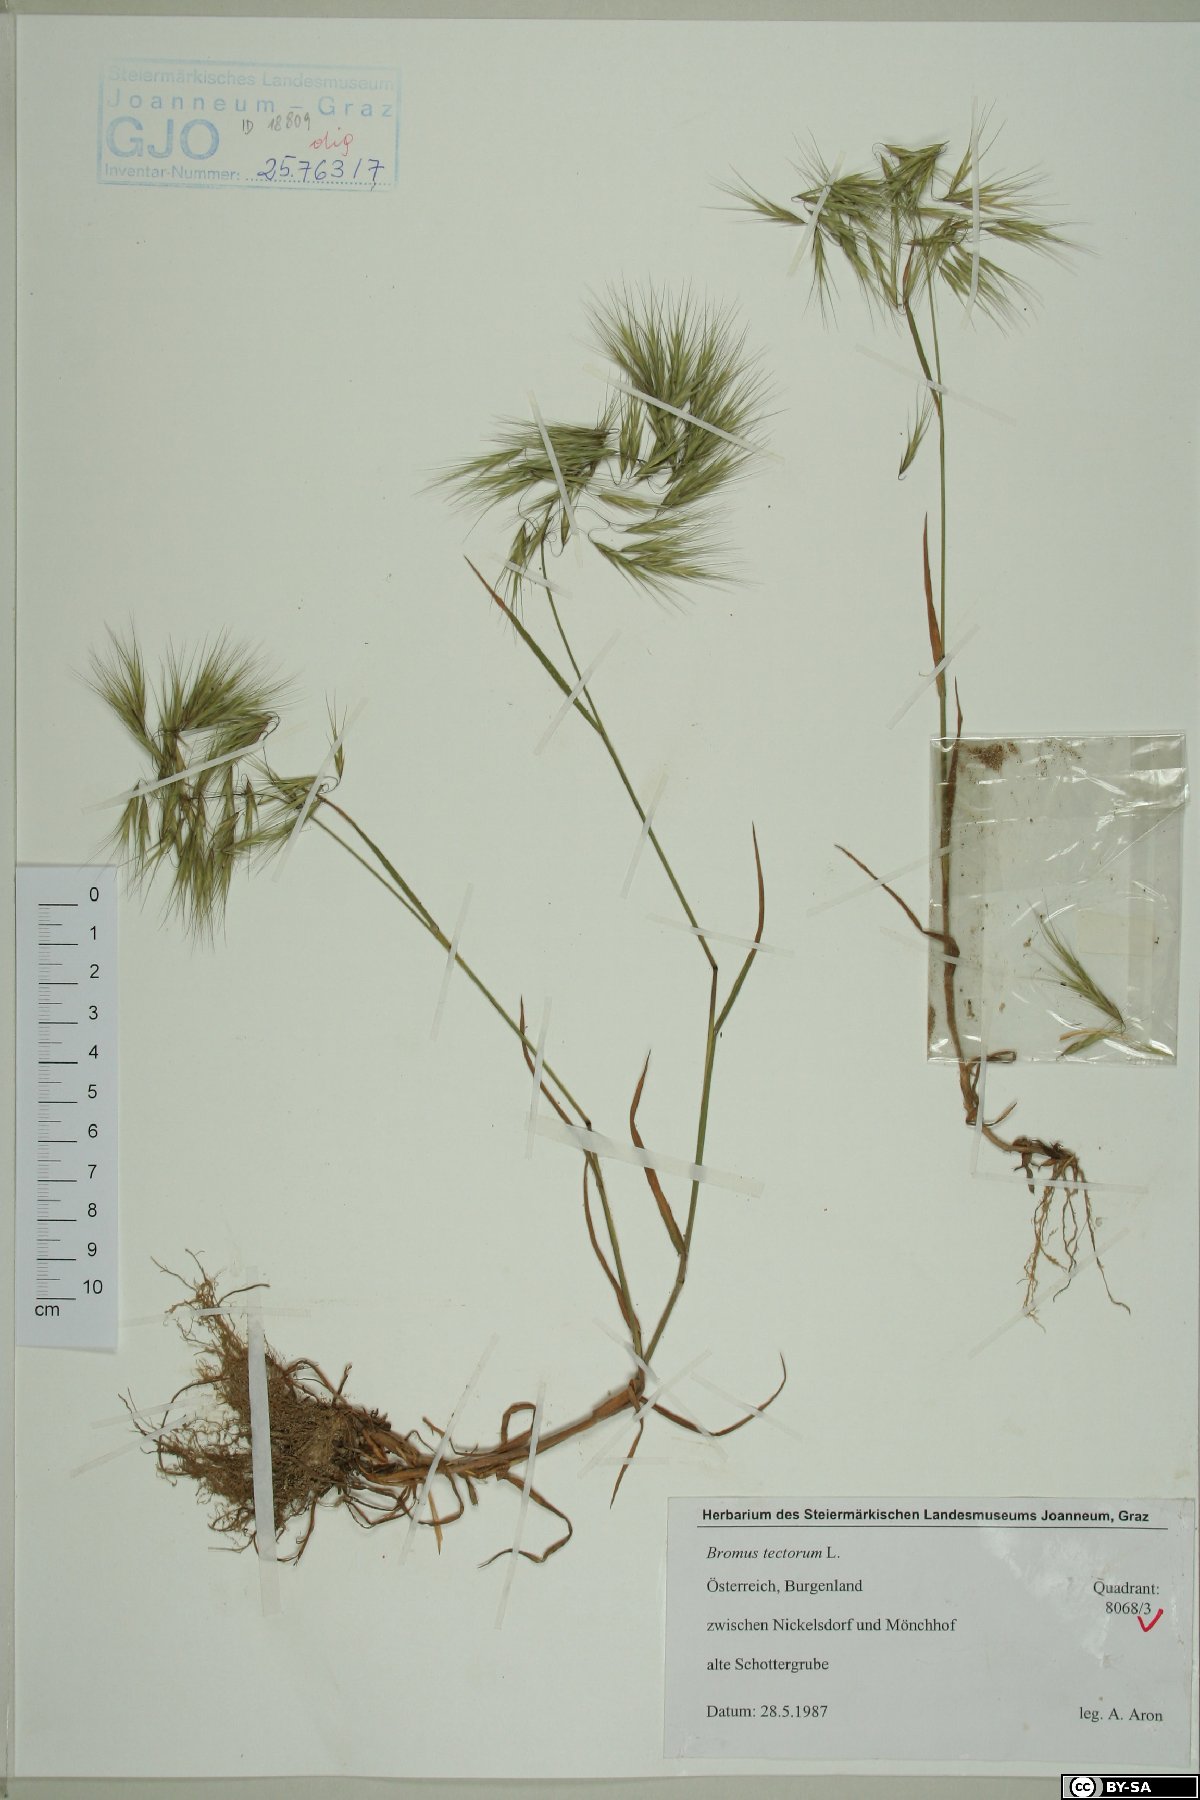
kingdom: Plantae
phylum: Tracheophyta
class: Liliopsida
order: Poales
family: Poaceae
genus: Bromus
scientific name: Bromus tectorum
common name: Cheatgrass
